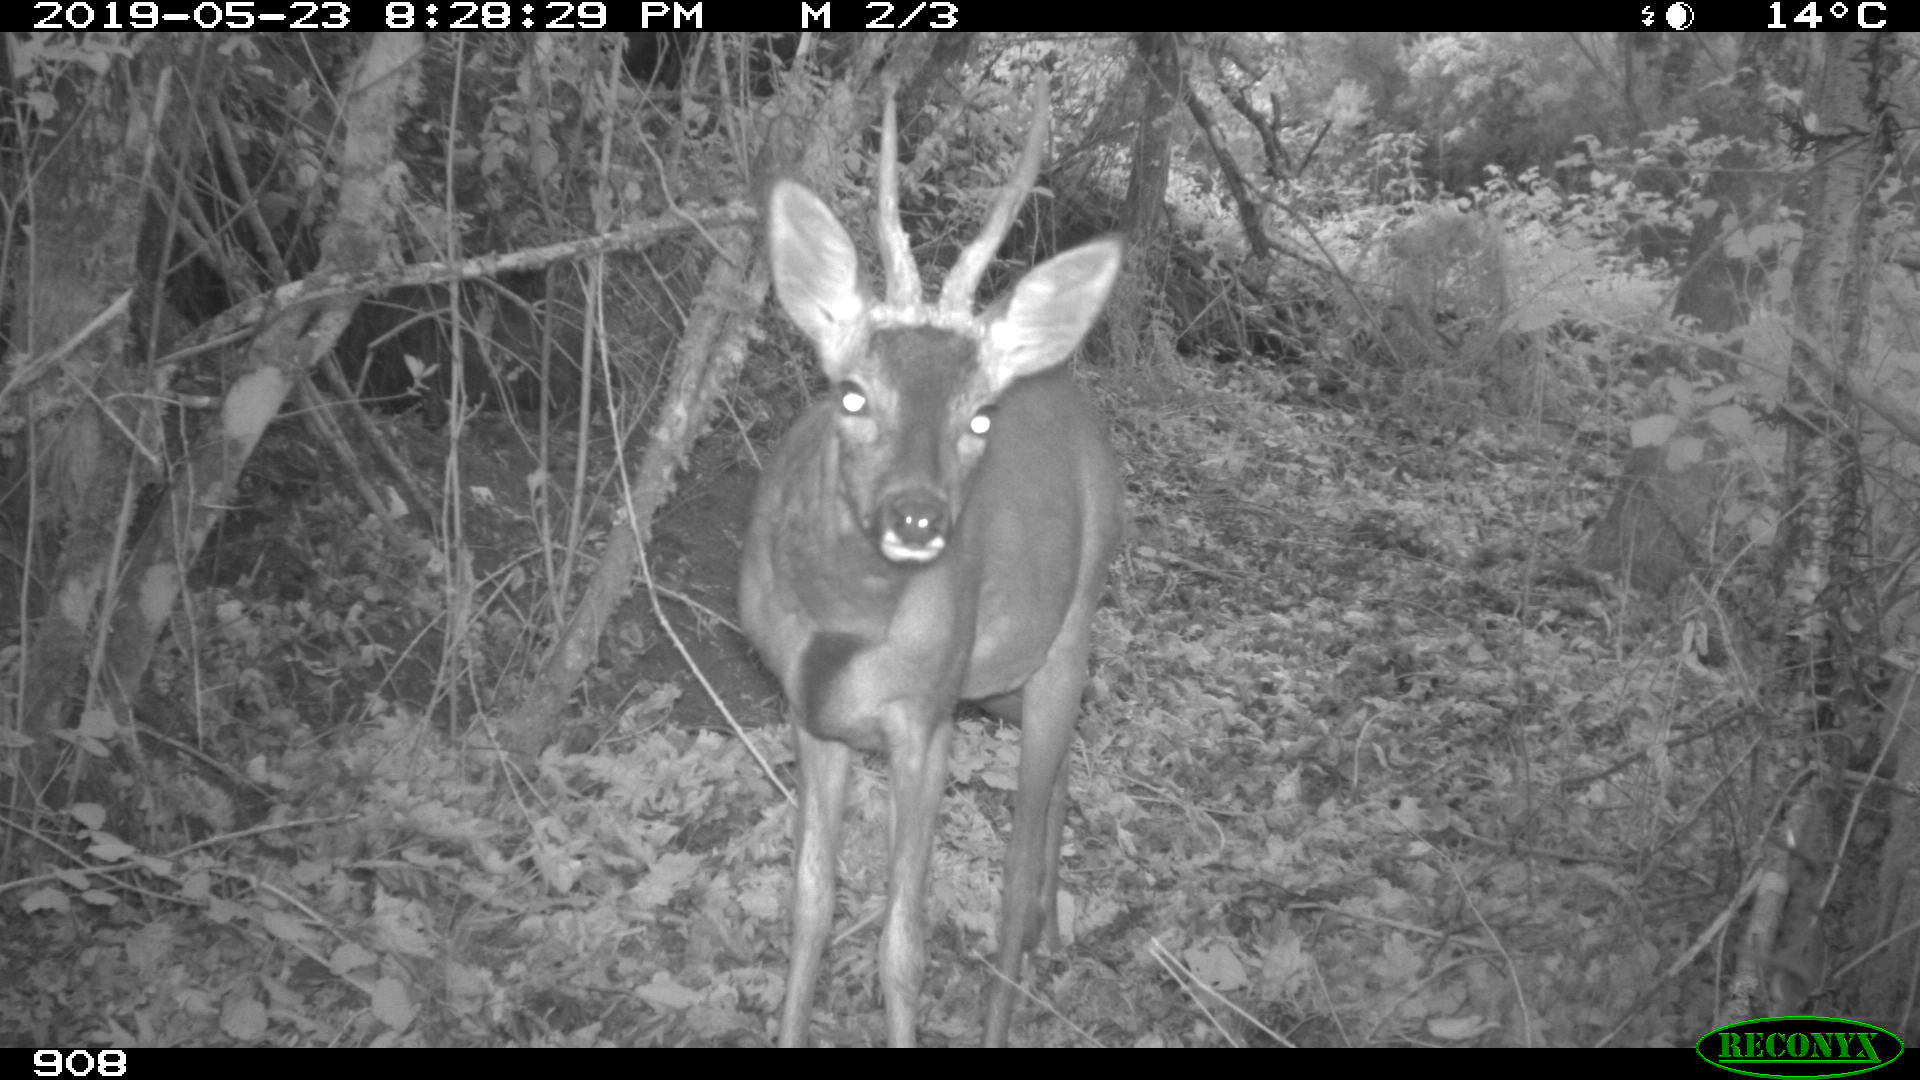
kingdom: Animalia
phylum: Chordata
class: Mammalia
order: Artiodactyla
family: Cervidae
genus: Capreolus
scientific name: Capreolus capreolus
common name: Western roe deer
